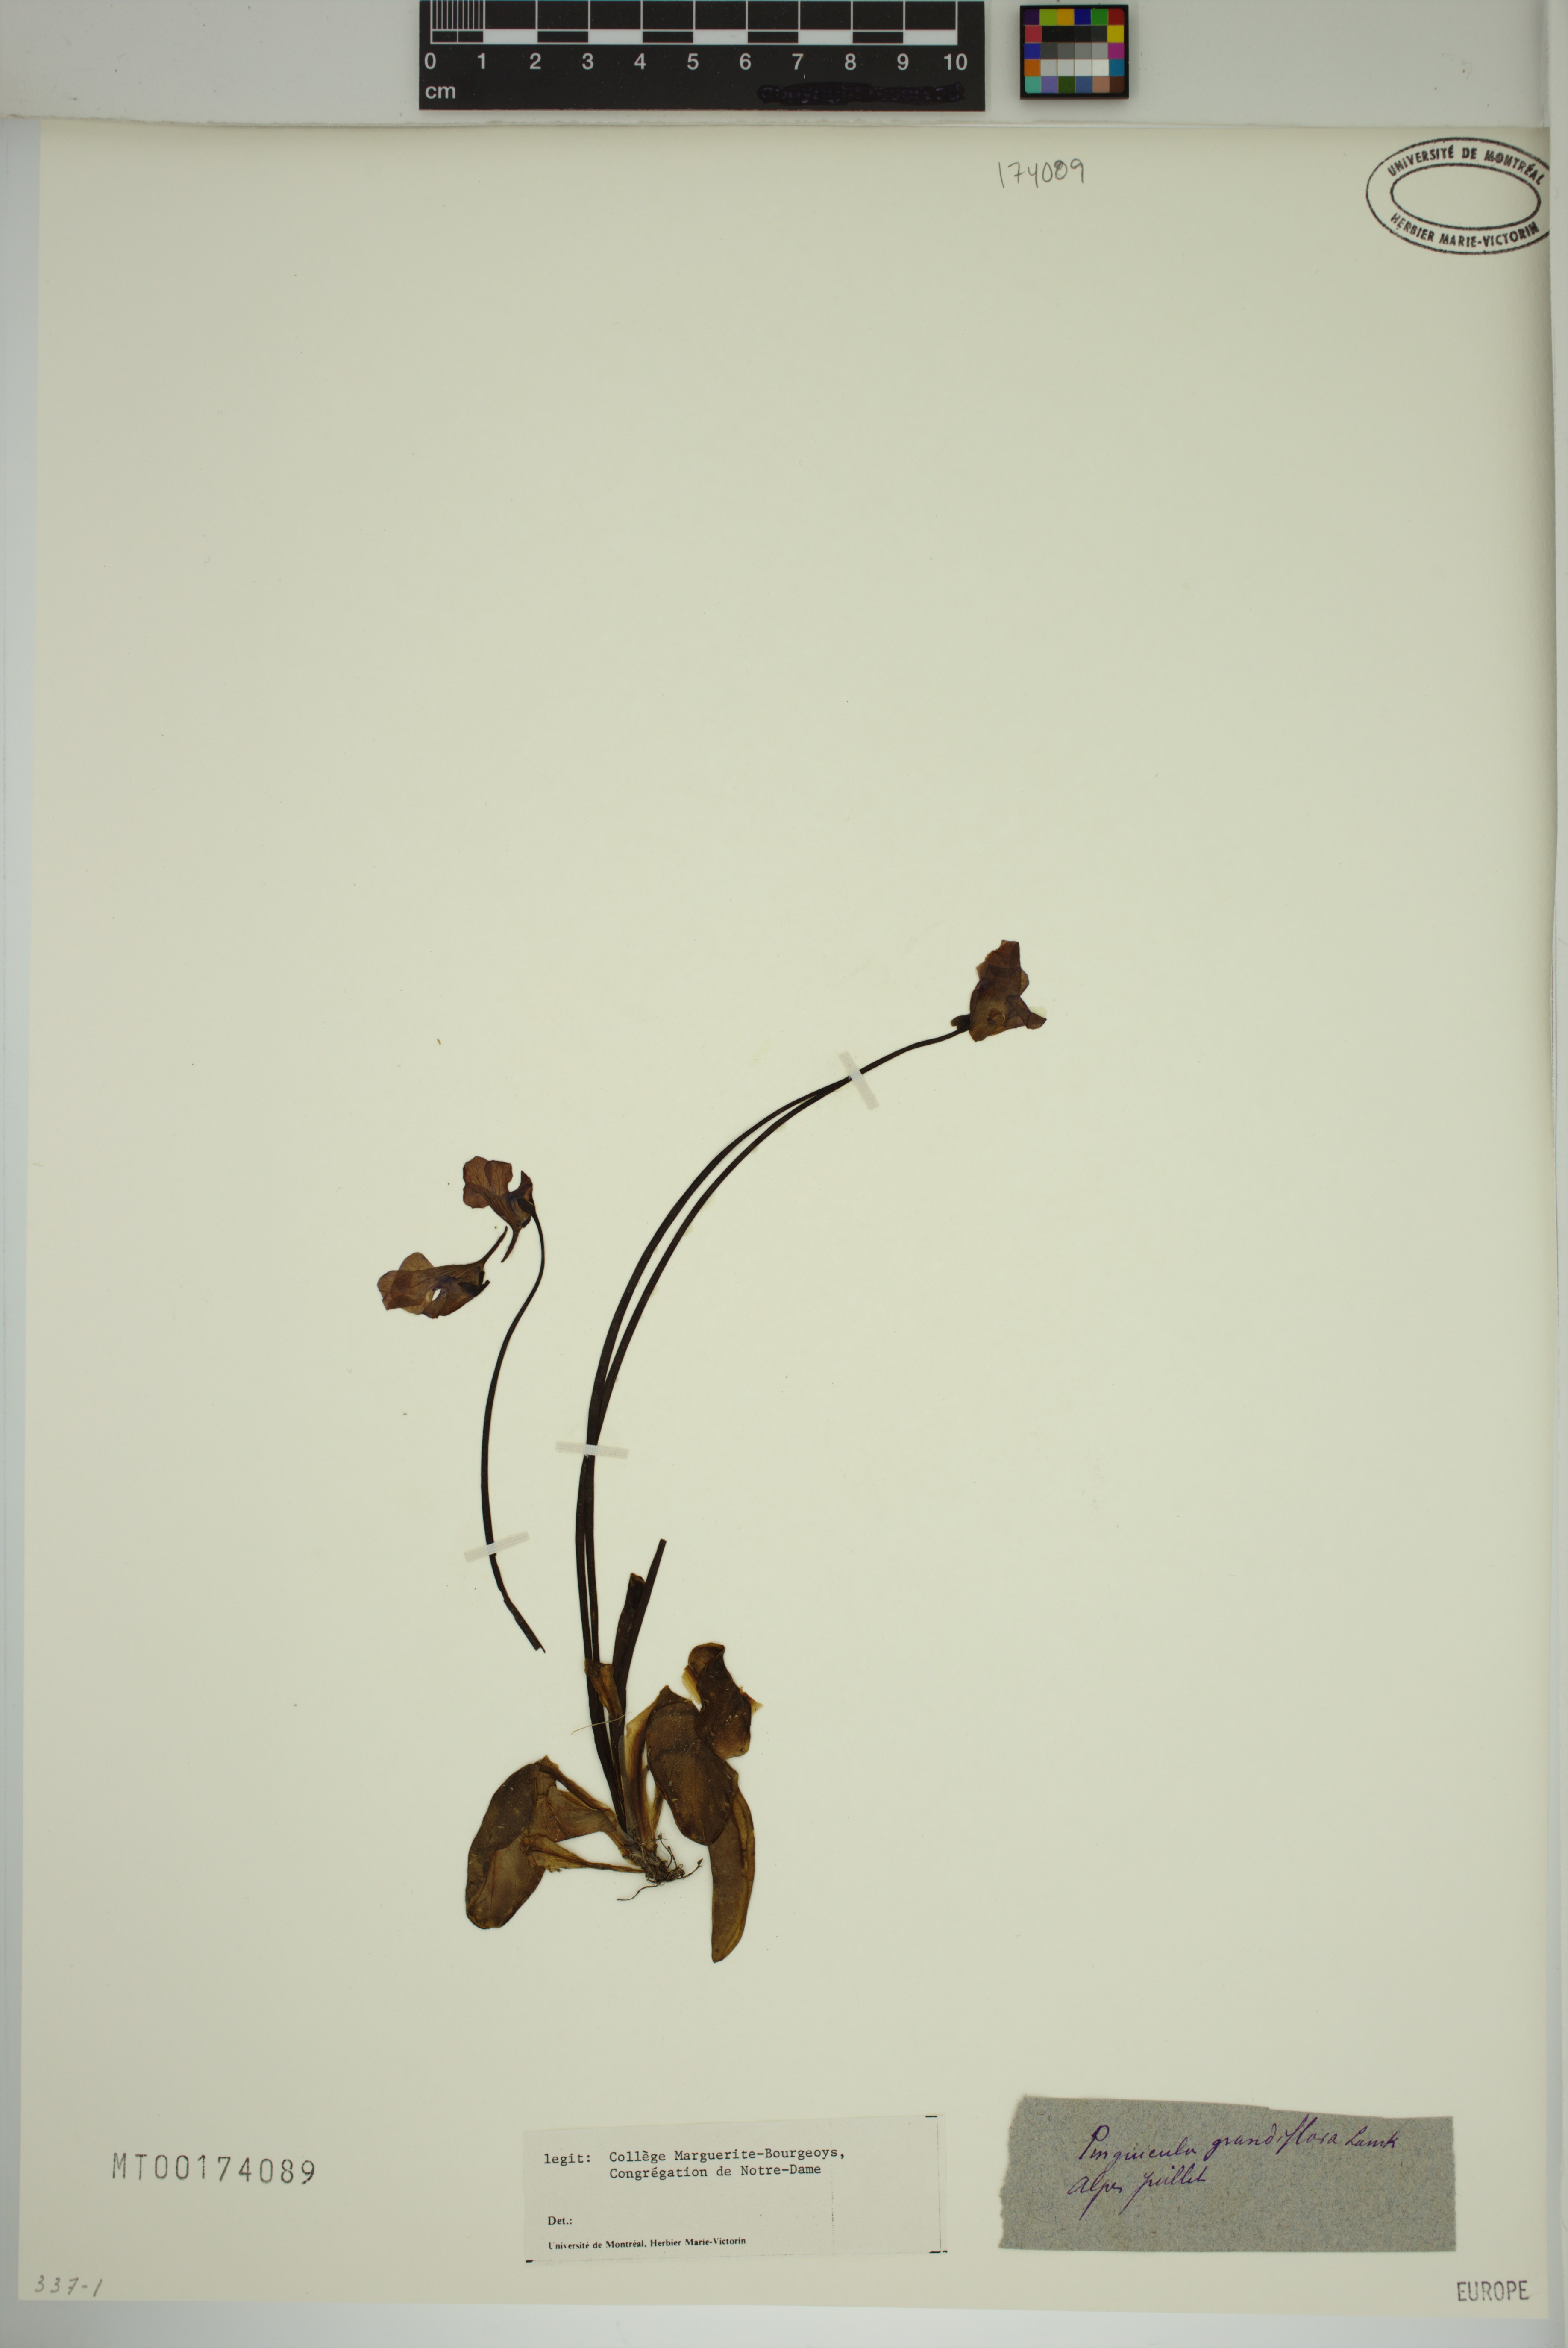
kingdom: Plantae
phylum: Tracheophyta
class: Magnoliopsida
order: Lamiales
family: Lentibulariaceae
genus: Pinguicula
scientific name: Pinguicula grandiflora
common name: Large-flowered butterwort
